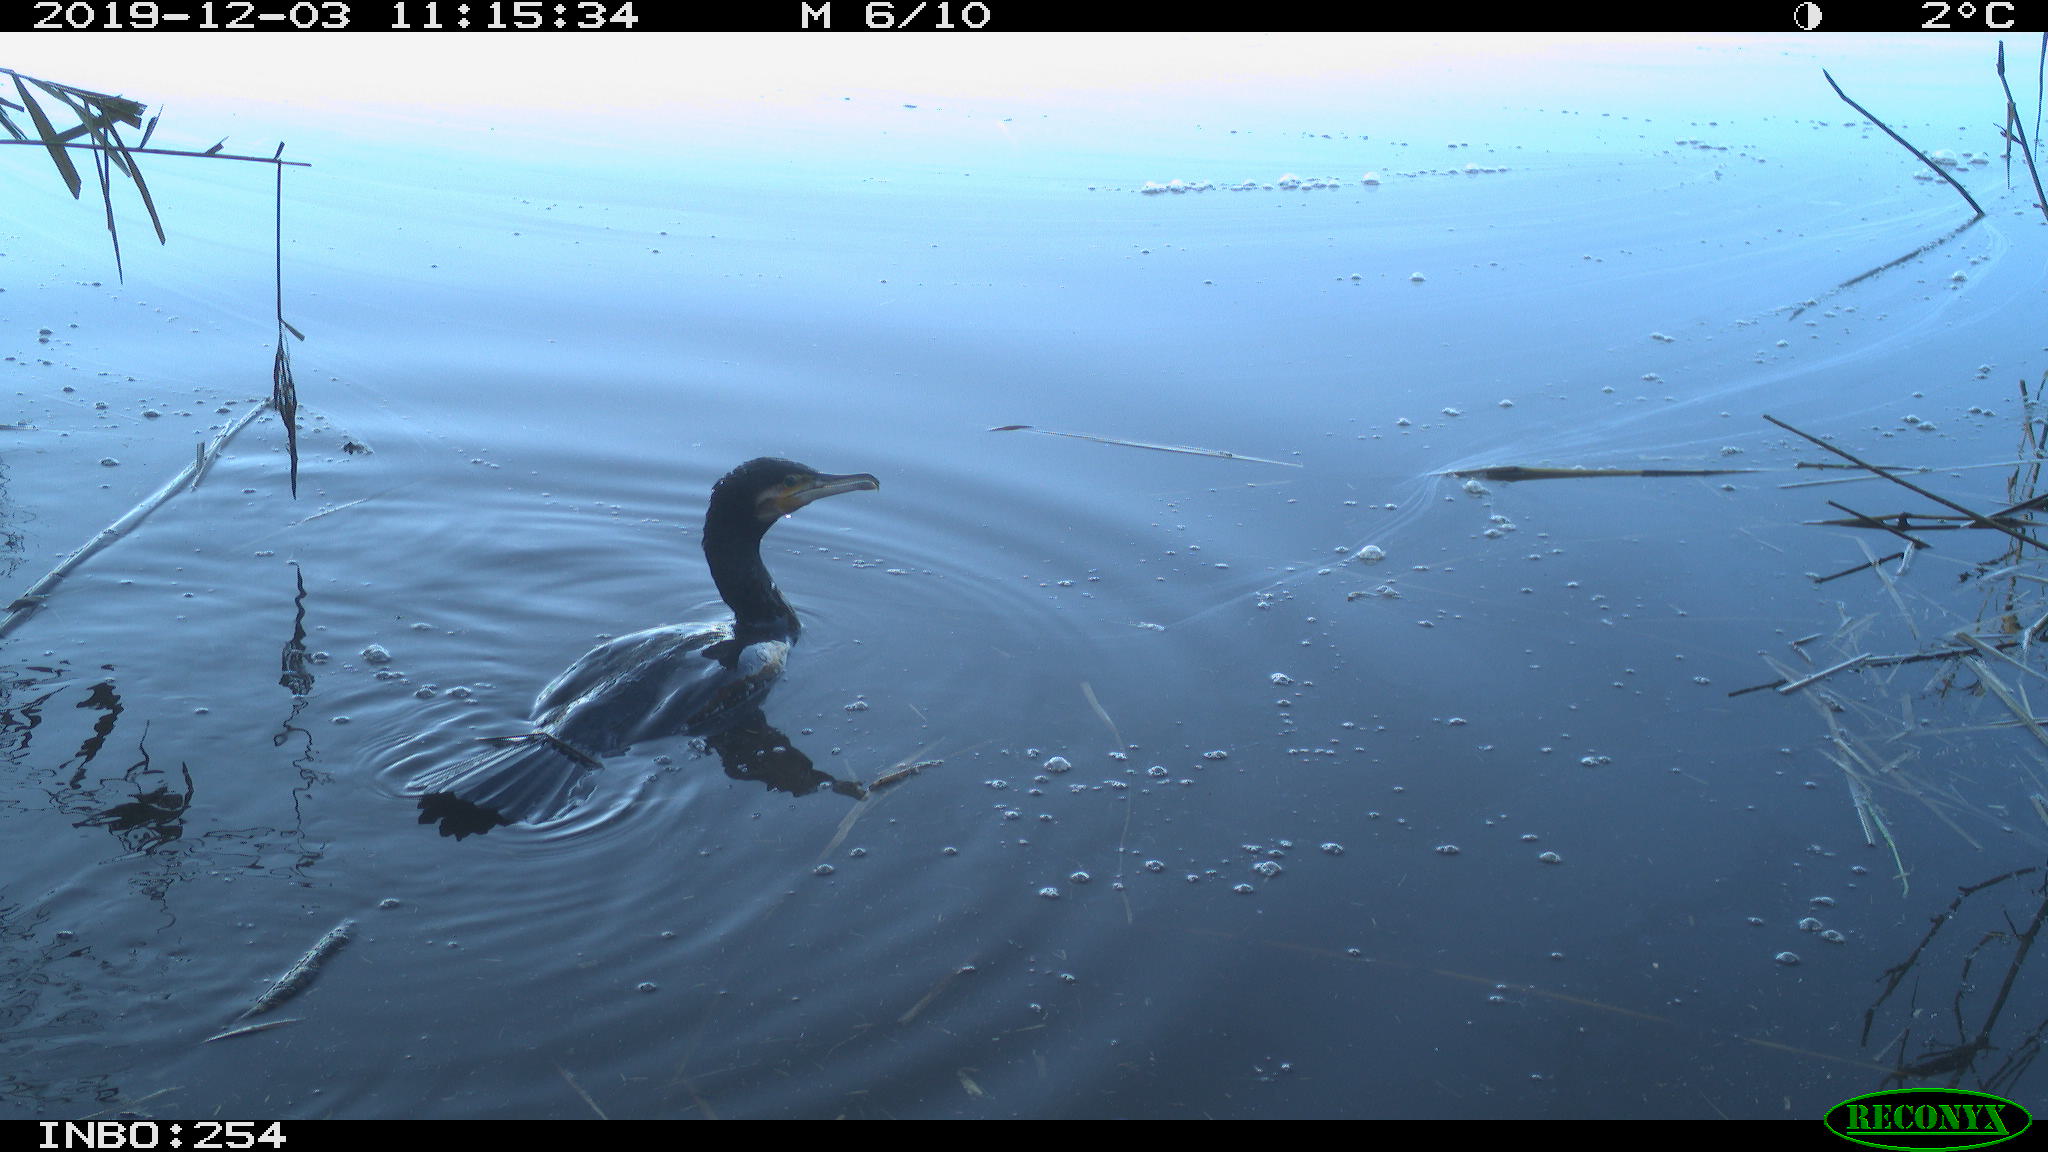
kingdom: Animalia
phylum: Chordata
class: Aves
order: Suliformes
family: Phalacrocoracidae
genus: Phalacrocorax
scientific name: Phalacrocorax carbo
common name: Great cormorant
